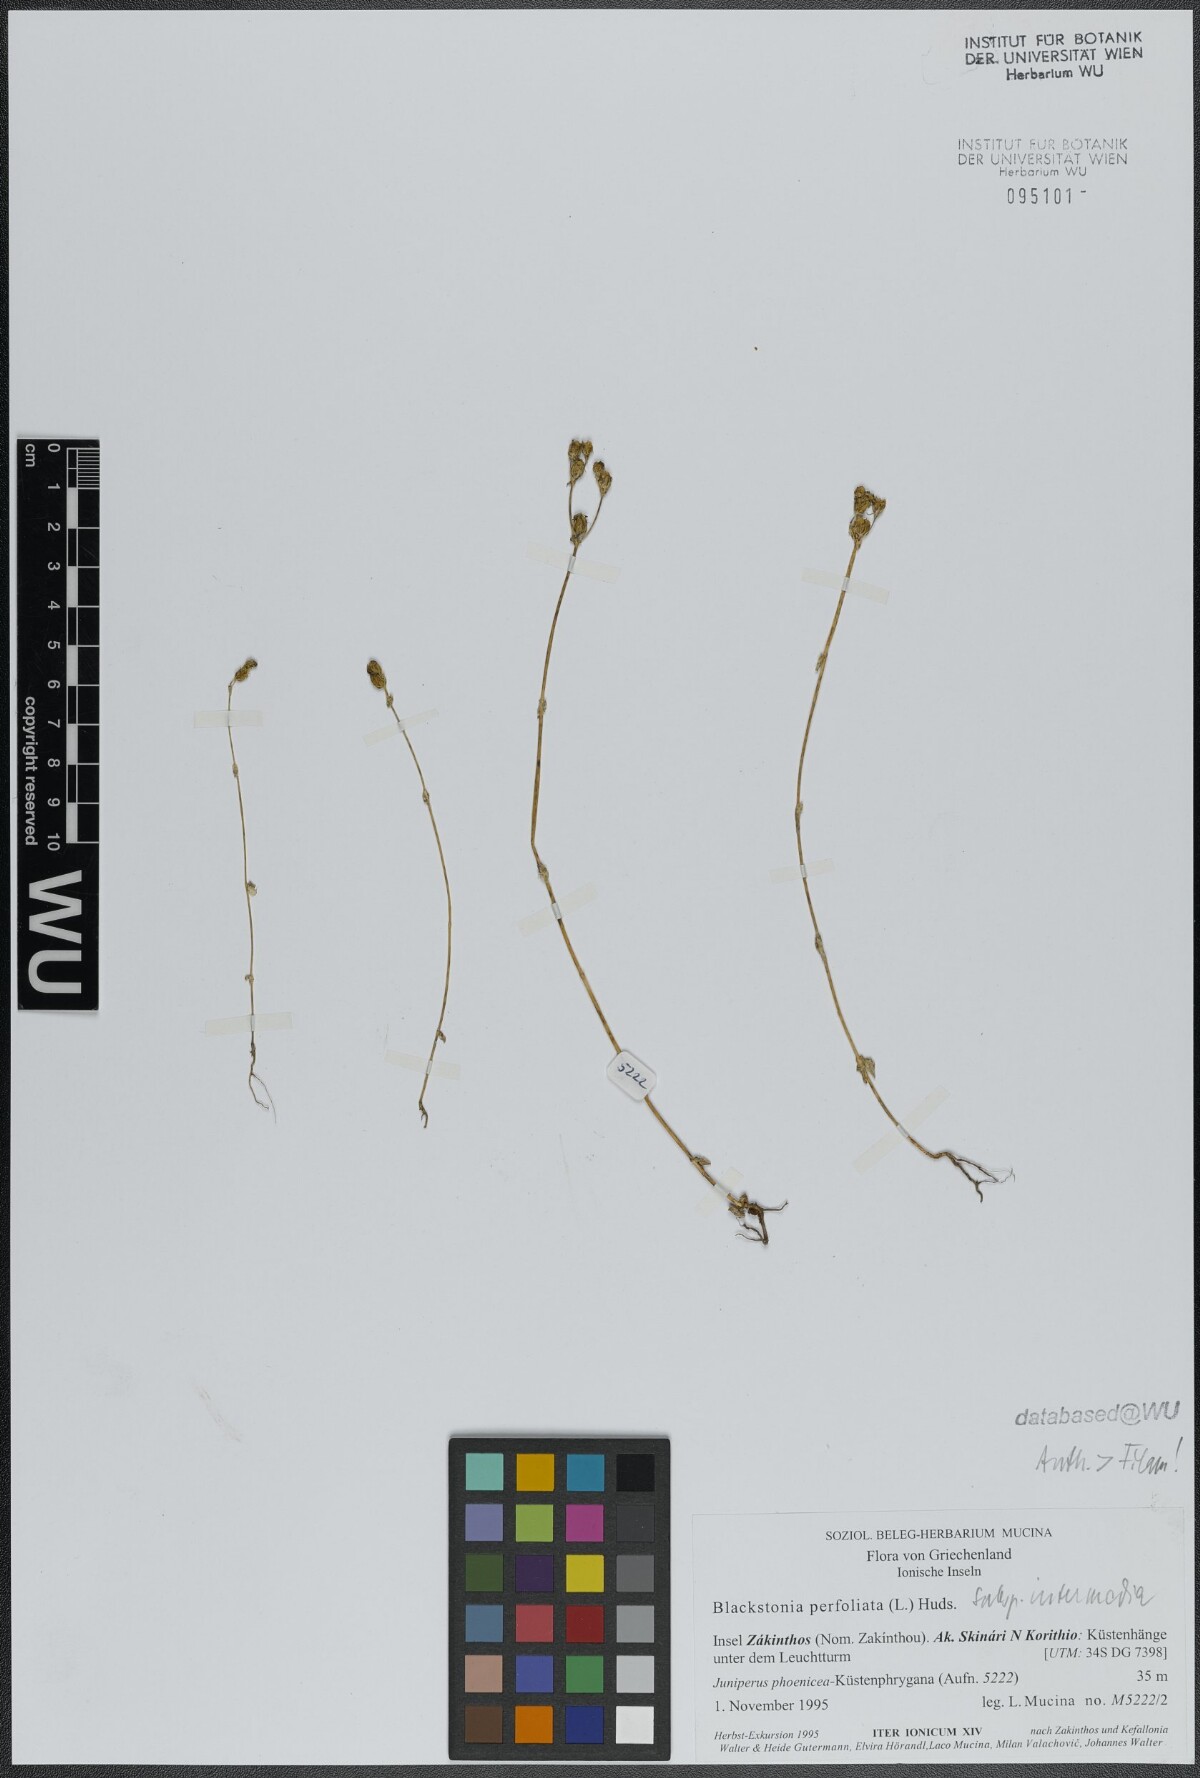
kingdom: Plantae
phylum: Tracheophyta
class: Magnoliopsida
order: Gentianales
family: Gentianaceae
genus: Blackstonia
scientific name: Blackstonia perfoliata
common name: Yellow-wort
